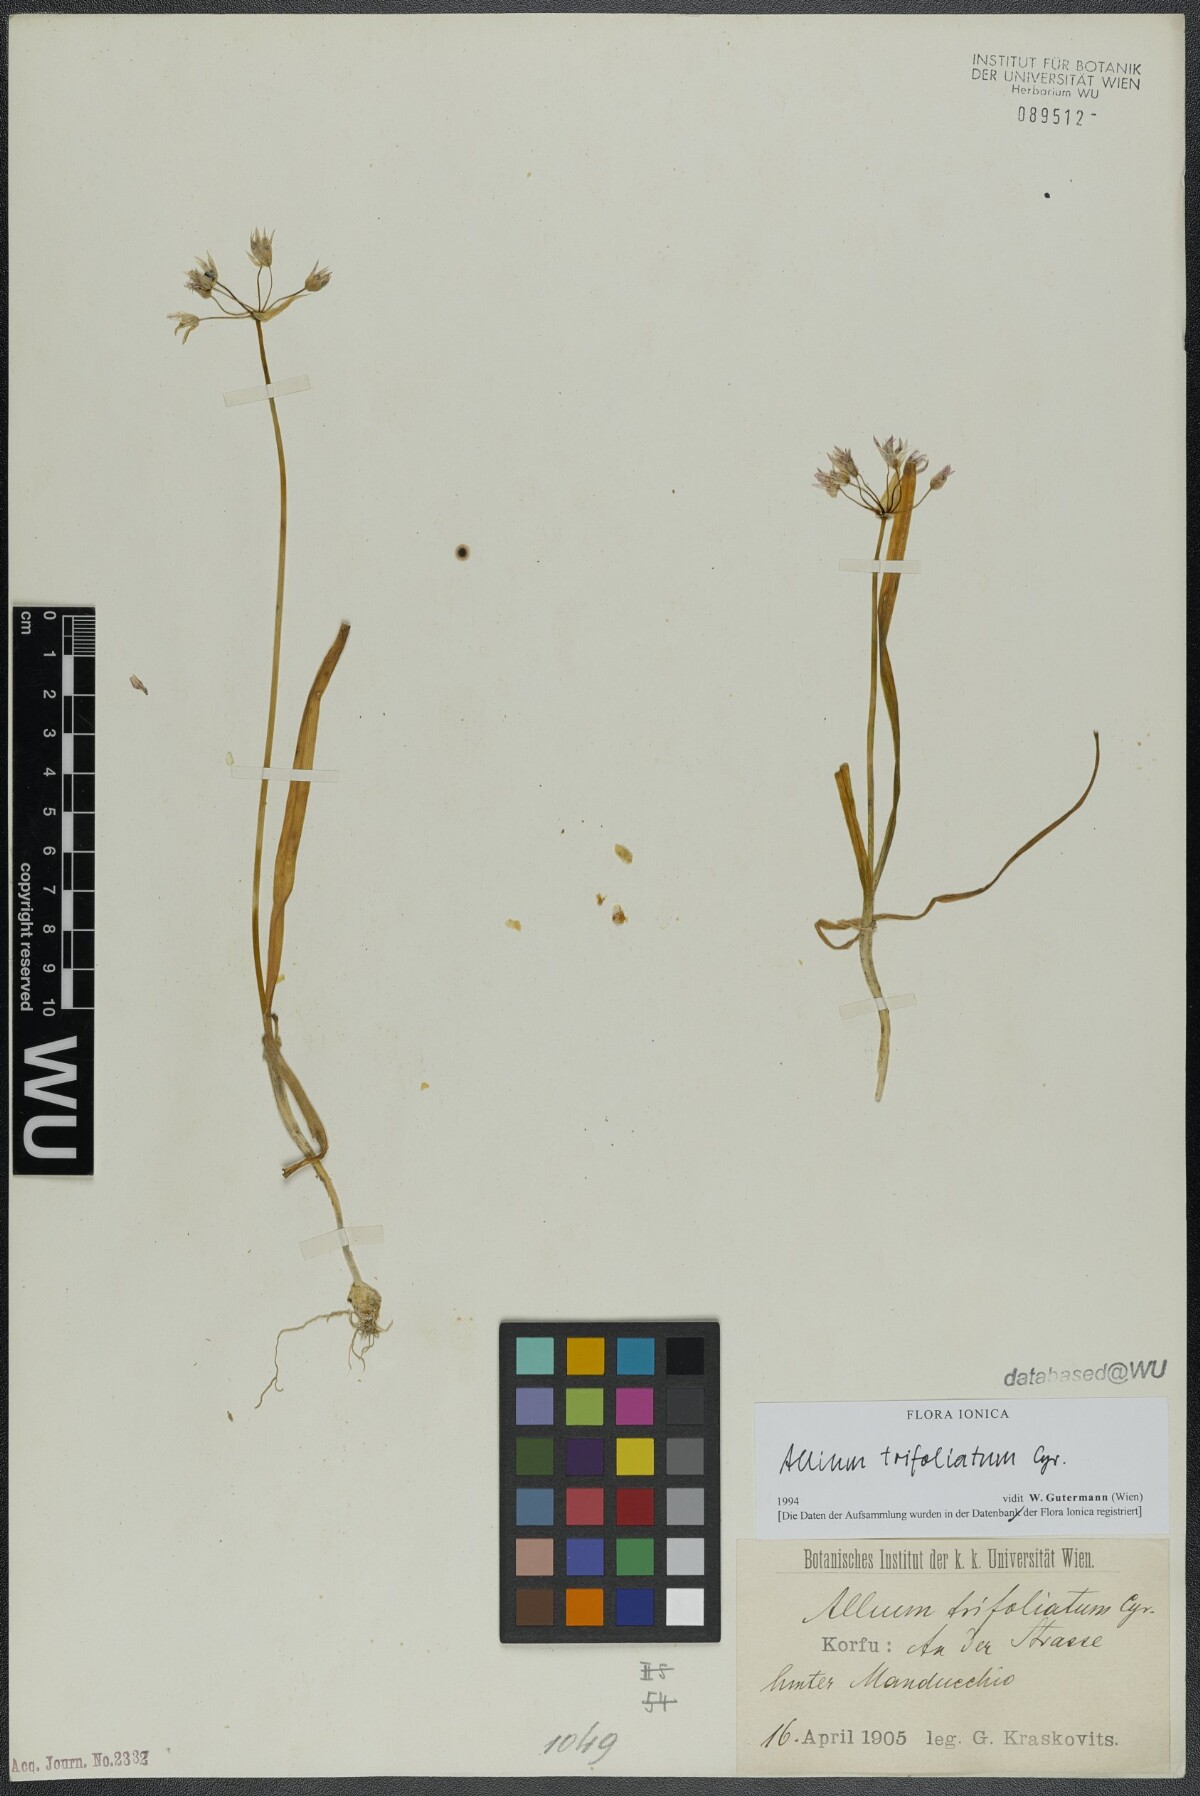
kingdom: Plantae
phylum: Tracheophyta
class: Liliopsida
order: Asparagales
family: Amaryllidaceae
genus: Allium
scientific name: Allium trifoliatum
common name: Pink garlic
